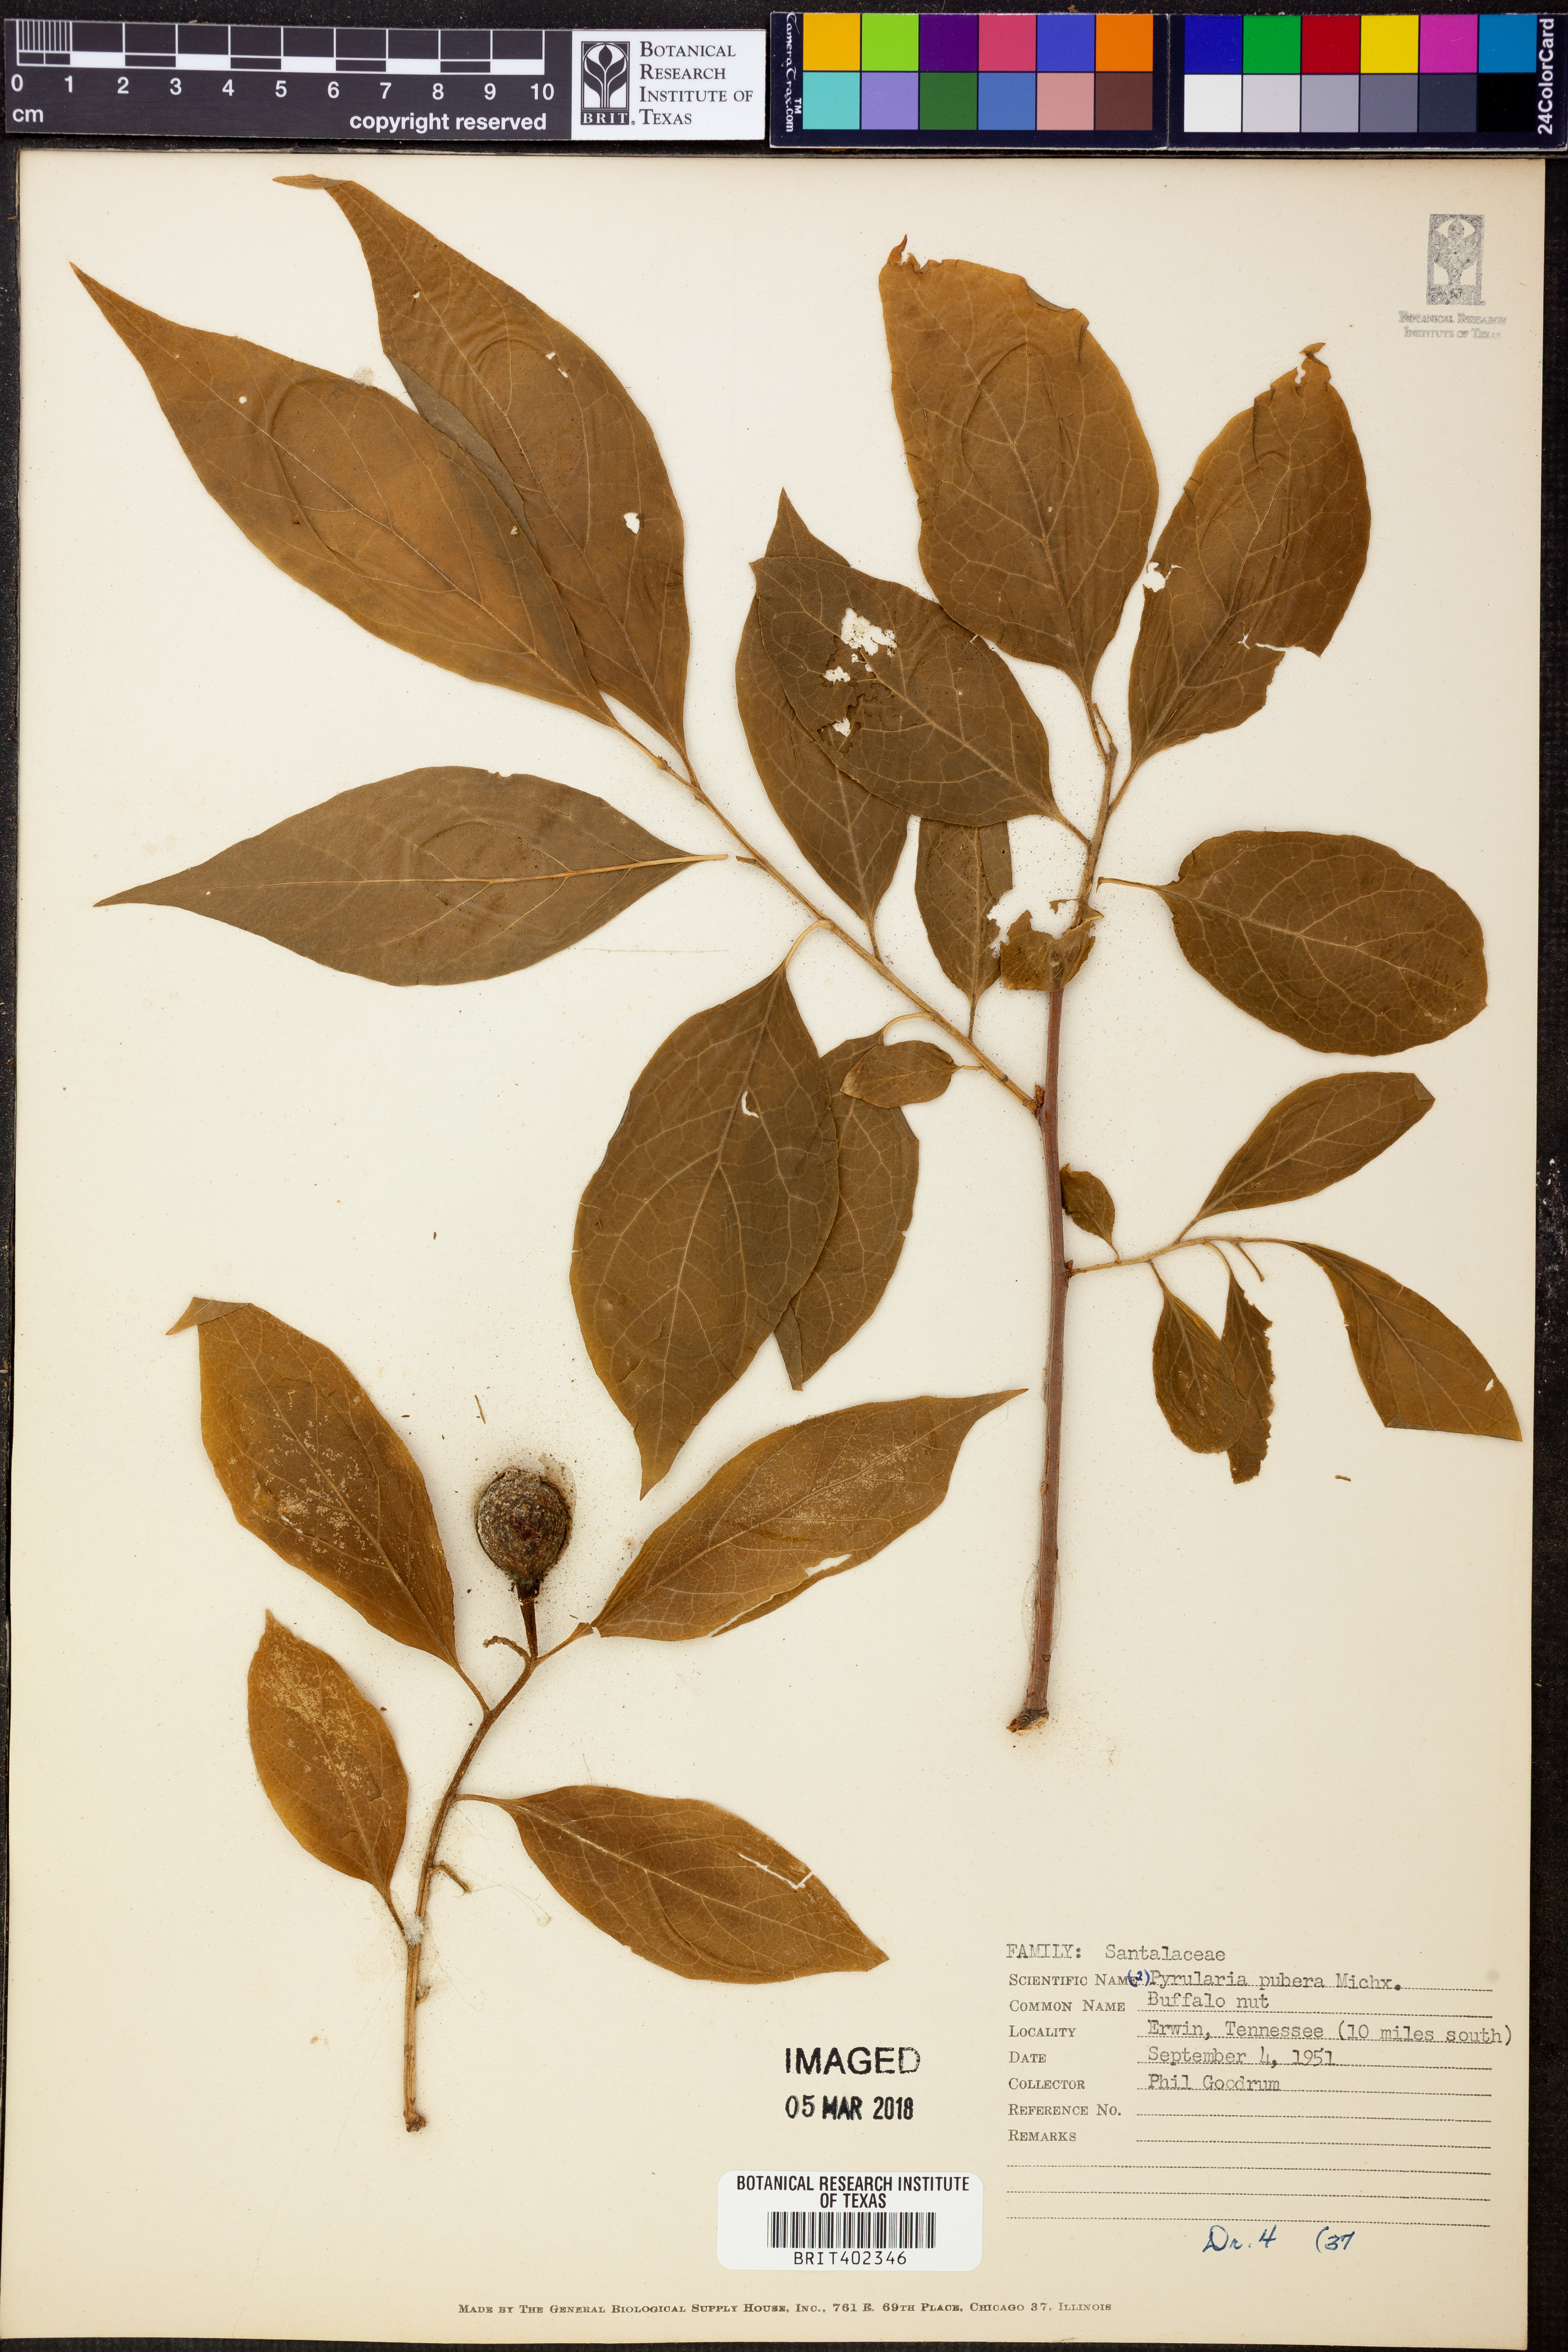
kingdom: Plantae
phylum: Tracheophyta
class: Magnoliopsida
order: Santalales
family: Cervantesiaceae
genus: Pyrularia
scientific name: Pyrularia pubera
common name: Oilnut
